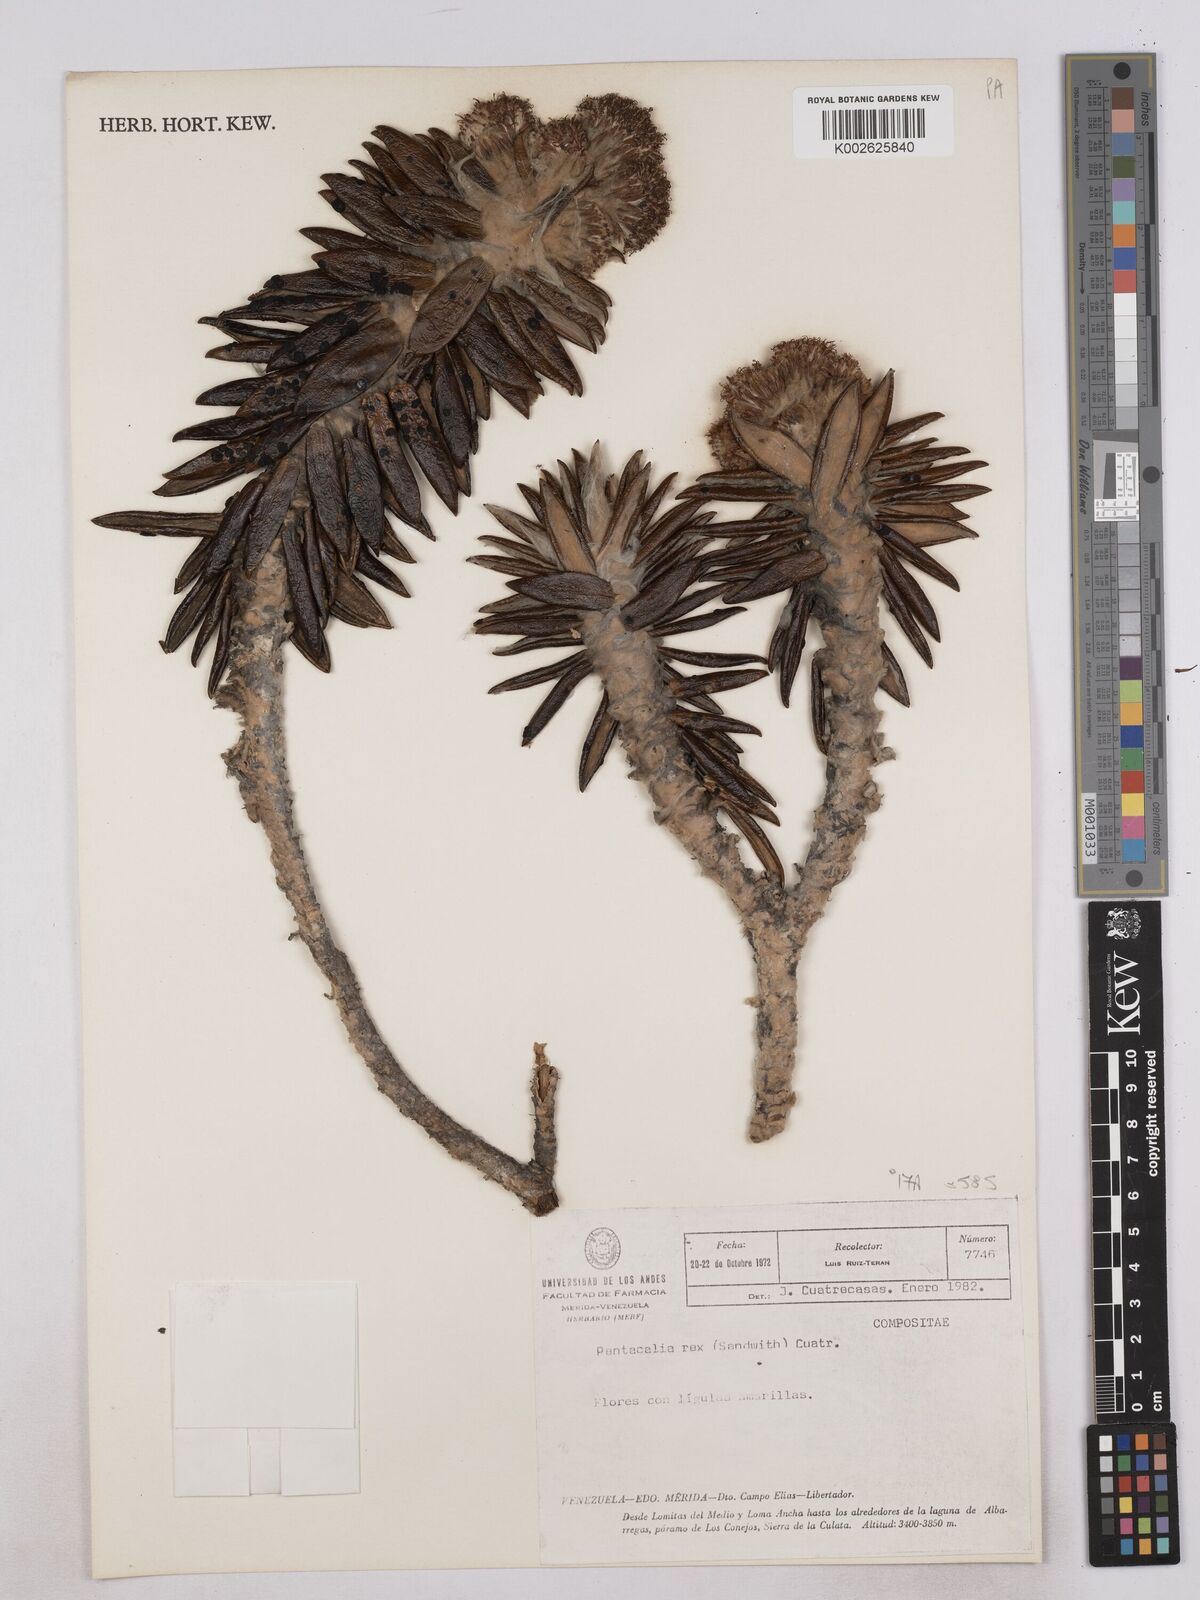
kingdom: Plantae
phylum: Tracheophyta
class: Magnoliopsida
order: Asterales
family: Asteraceae
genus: Monticalia
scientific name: Monticalia rex
